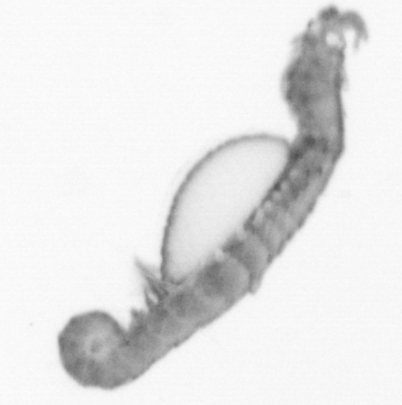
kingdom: Animalia
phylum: Annelida
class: Polychaeta
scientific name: Polychaeta
